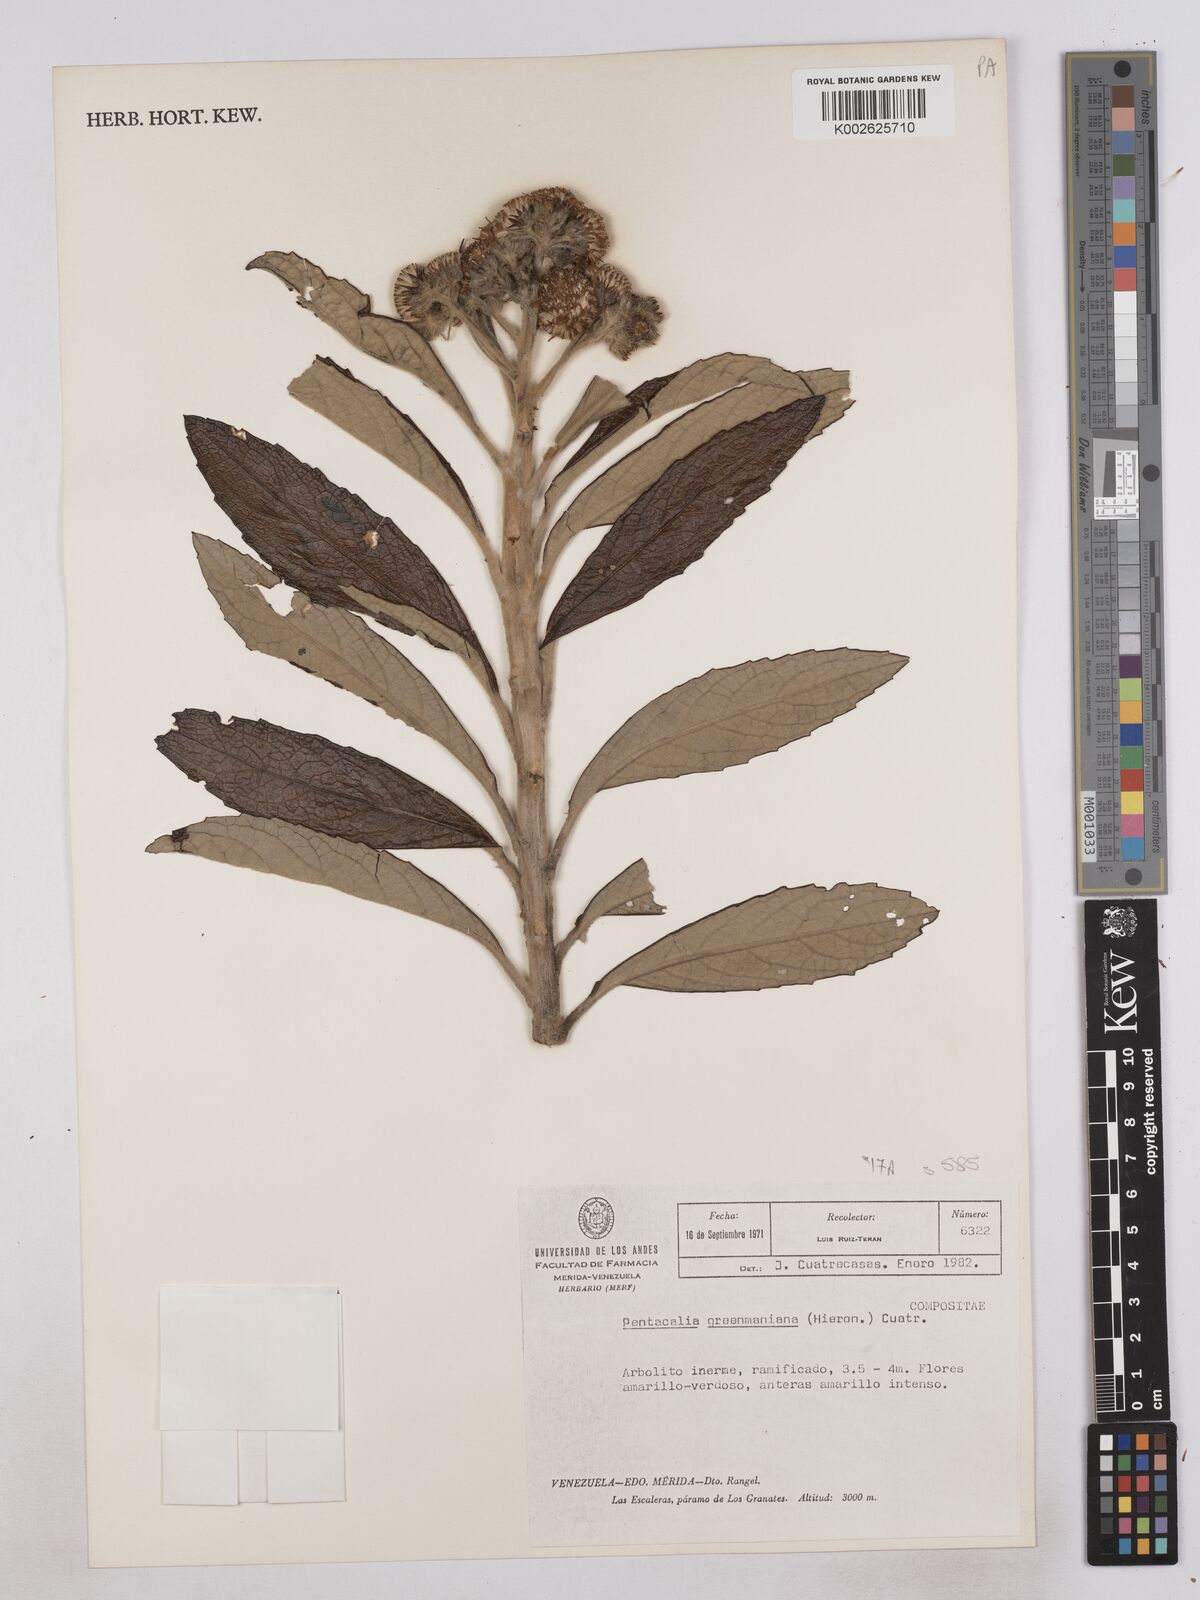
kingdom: Plantae
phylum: Tracheophyta
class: Magnoliopsida
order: Asterales
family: Asteraceae
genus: Monticalia
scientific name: Monticalia greenmaniana
